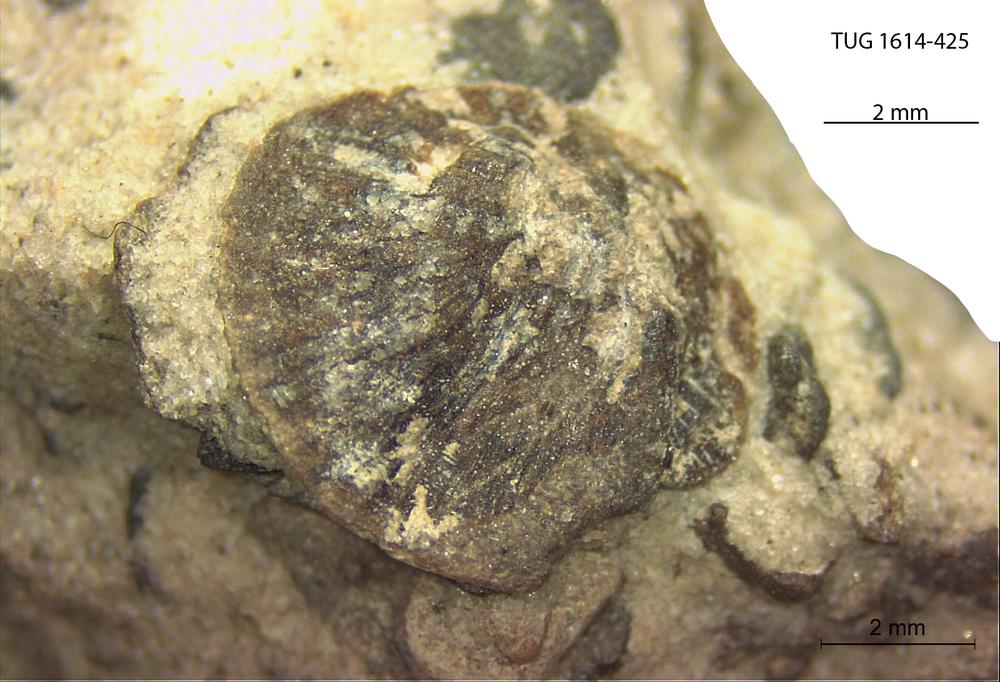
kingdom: Animalia
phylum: Mollusca
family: Scenellidae
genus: Scenella
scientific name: Scenella
